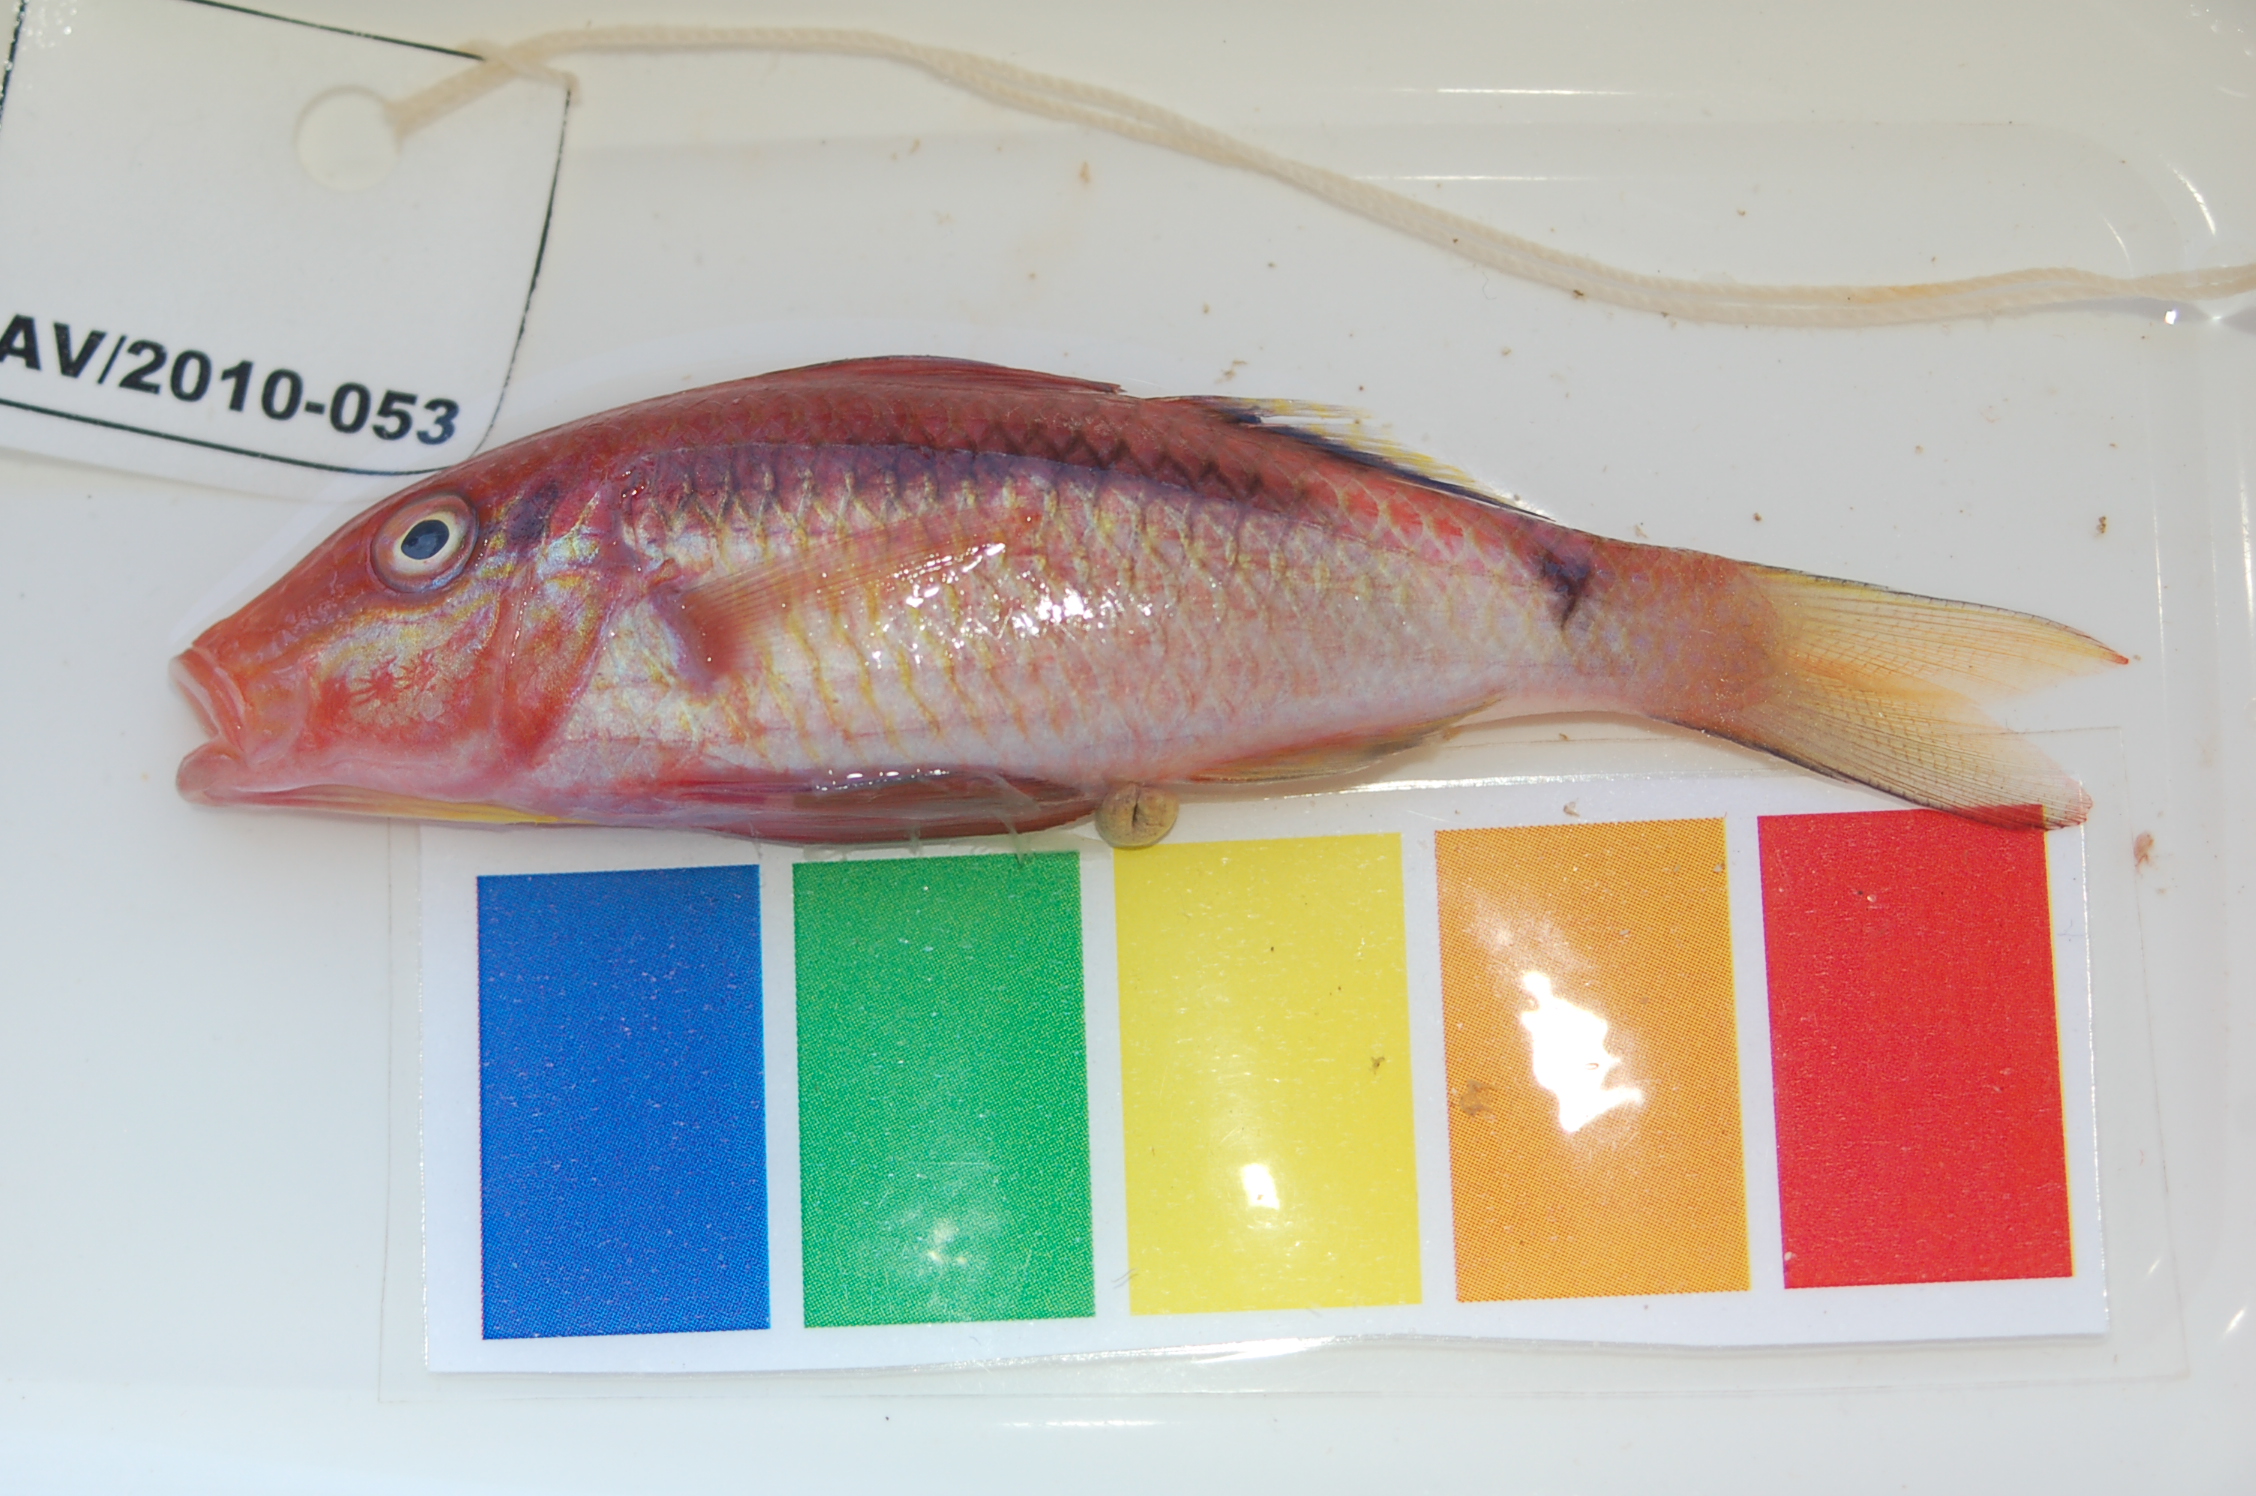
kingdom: Animalia
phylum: Chordata
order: Perciformes
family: Mullidae
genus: Parupeneus
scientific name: Parupeneus macronemus
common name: Long-barbel goatfish
